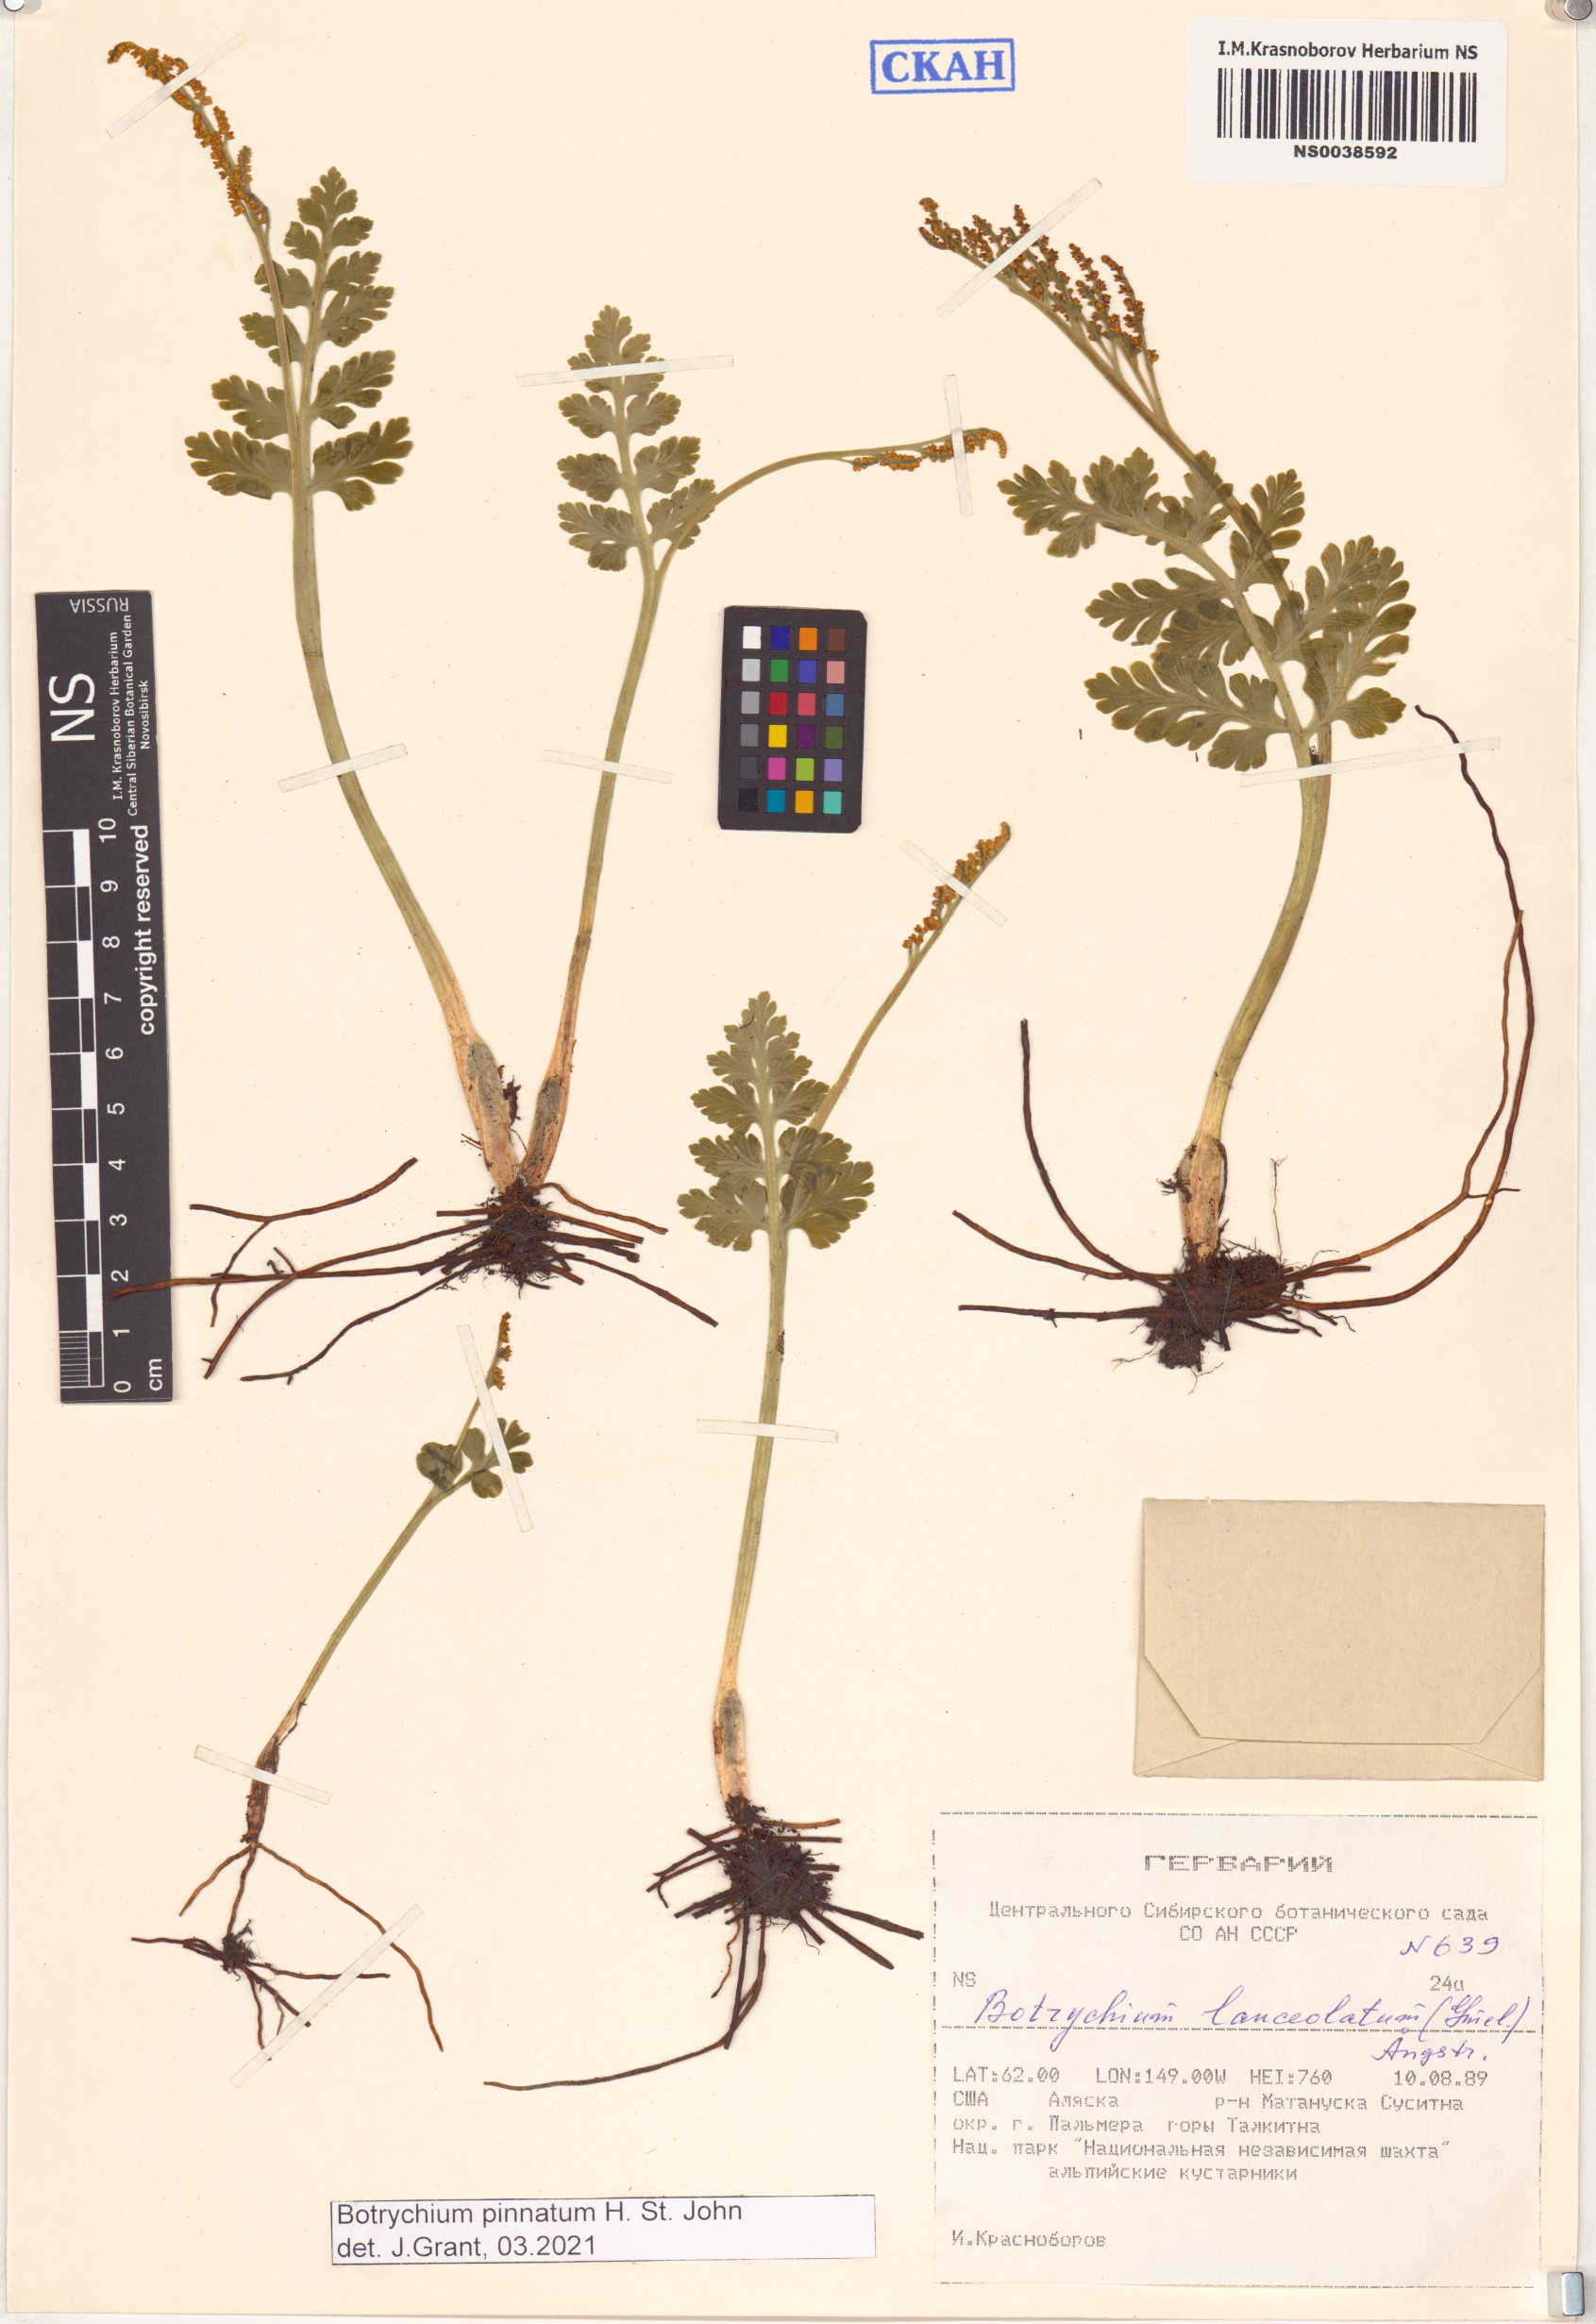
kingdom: Plantae
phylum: Tracheophyta
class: Polypodiopsida
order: Ophioglossales
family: Ophioglossaceae
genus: Botrychium
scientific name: Botrychium pinnatum
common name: Northwestern moonwort
